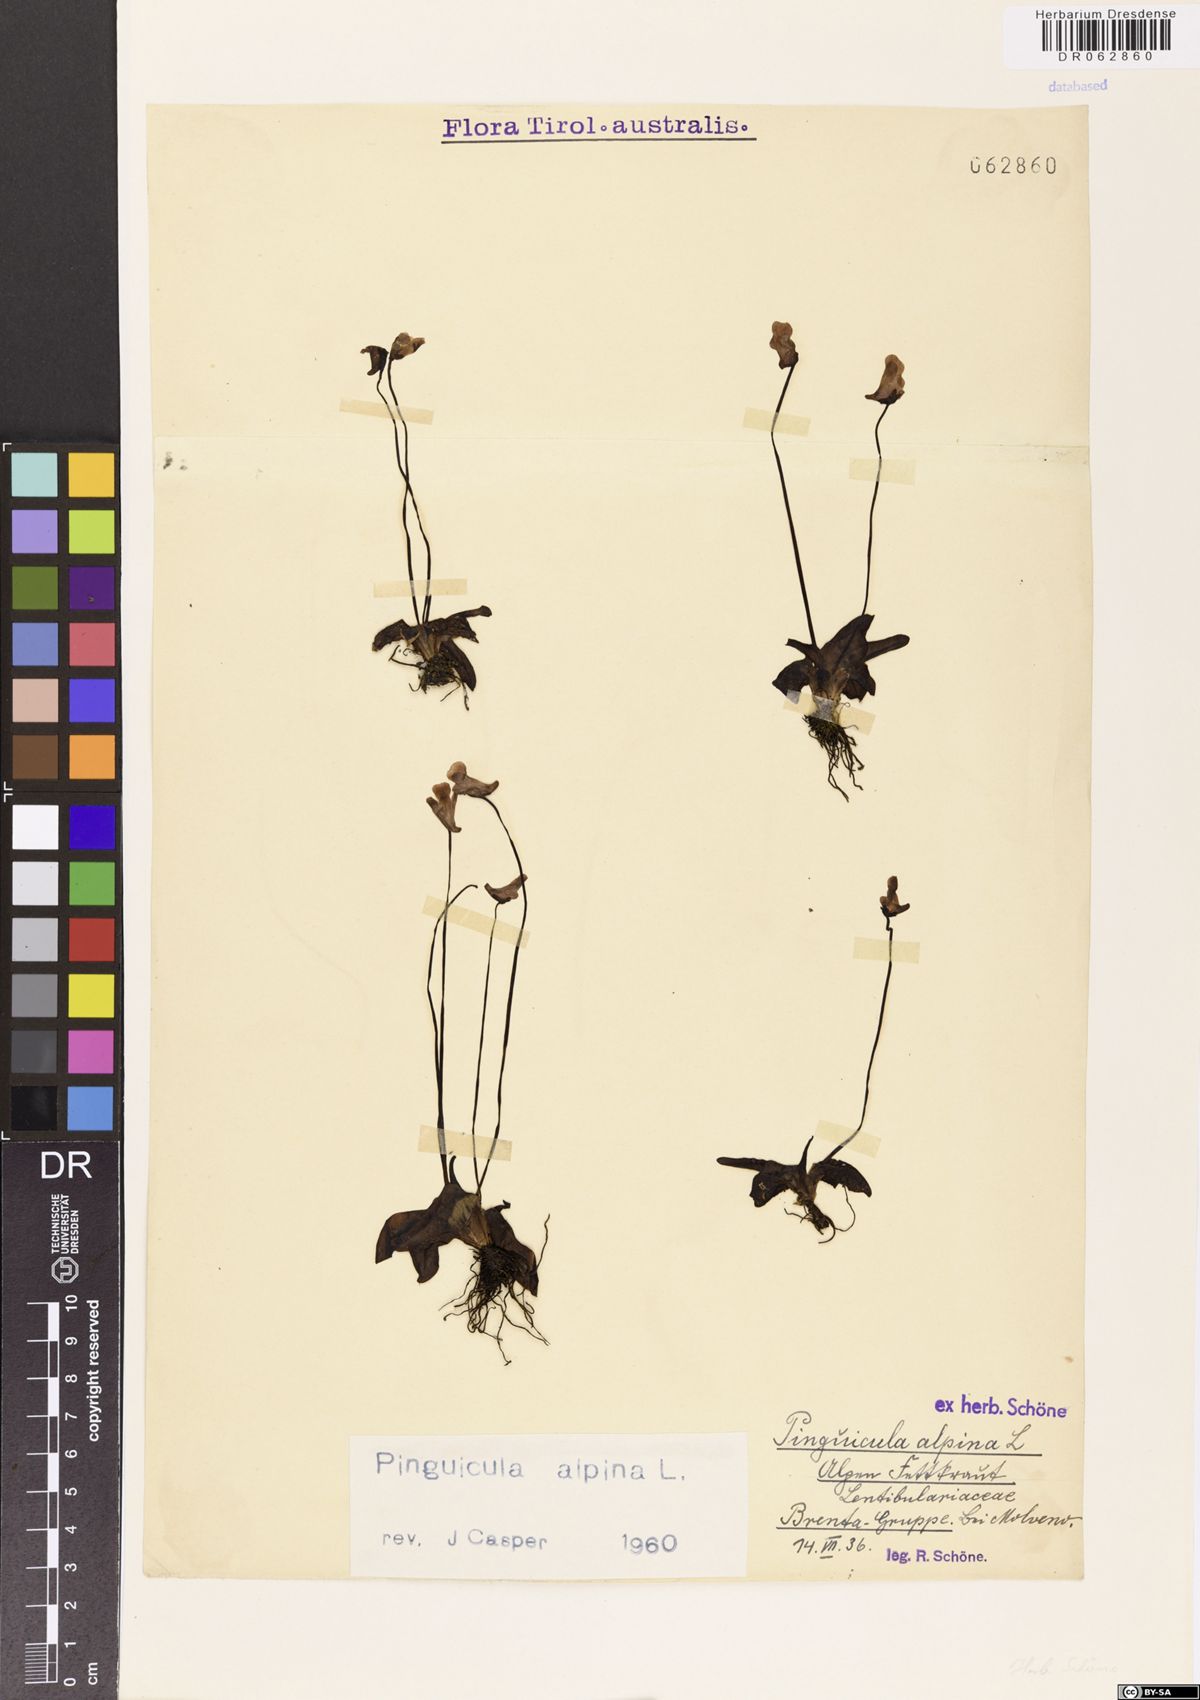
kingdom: Plantae
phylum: Tracheophyta
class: Magnoliopsida
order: Lamiales
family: Lentibulariaceae
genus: Pinguicula
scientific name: Pinguicula alpina
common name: Alpine butterwort
